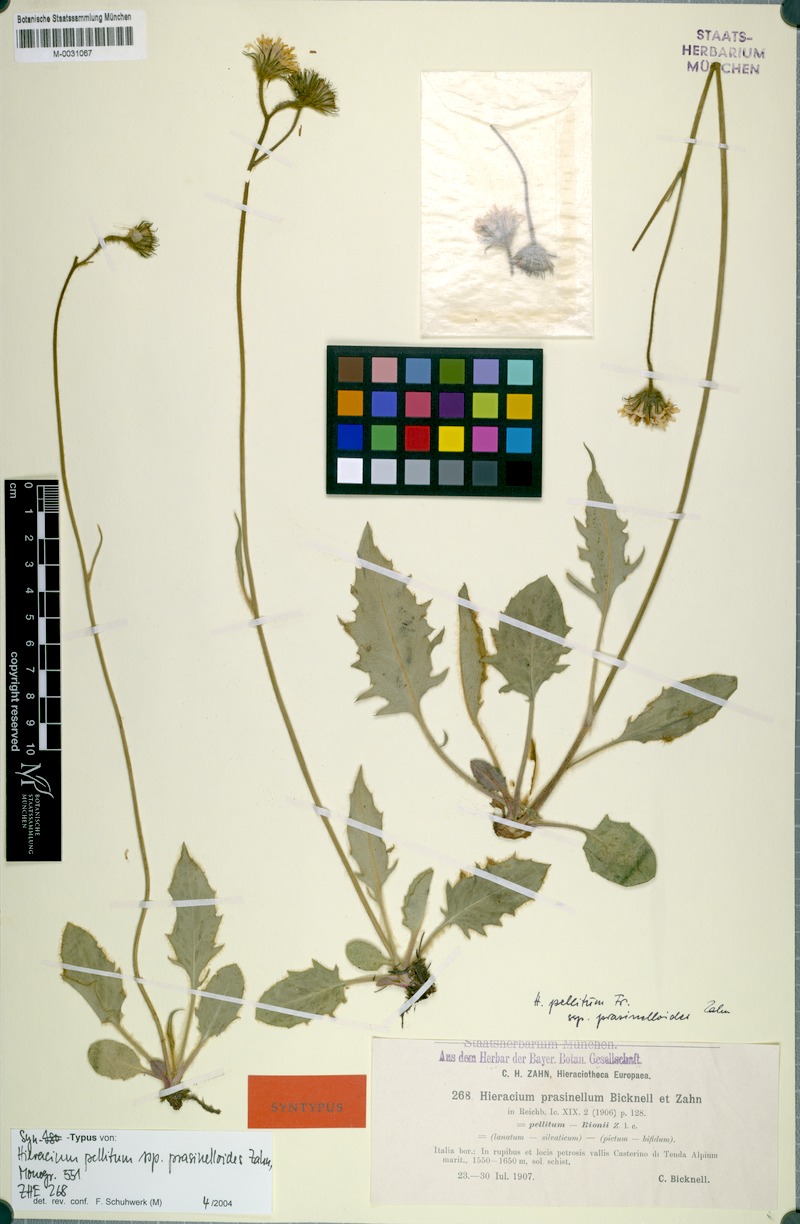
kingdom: Plantae
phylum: Tracheophyta
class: Magnoliopsida
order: Asterales
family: Asteraceae
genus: Hieracium
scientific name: Hieracium pellitum
